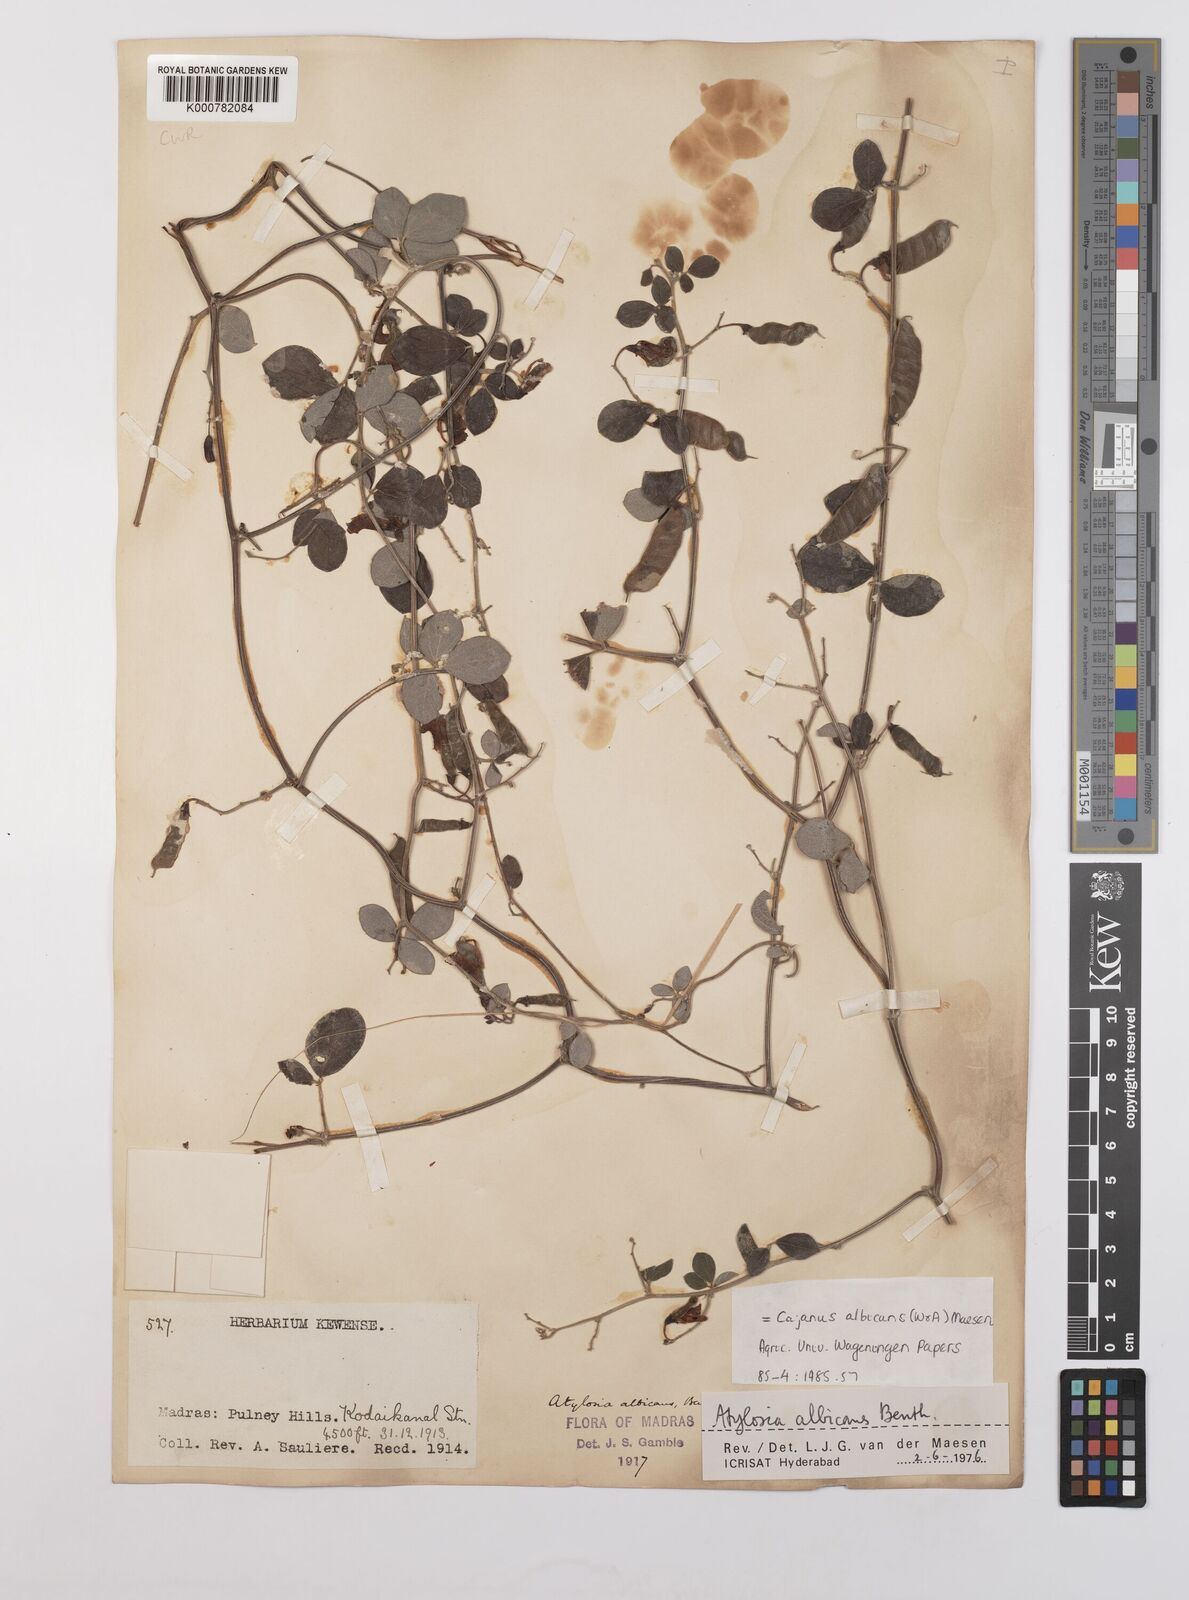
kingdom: Plantae
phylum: Tracheophyta
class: Magnoliopsida
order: Fabales
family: Fabaceae
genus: Cajanus
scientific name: Cajanus albicans
